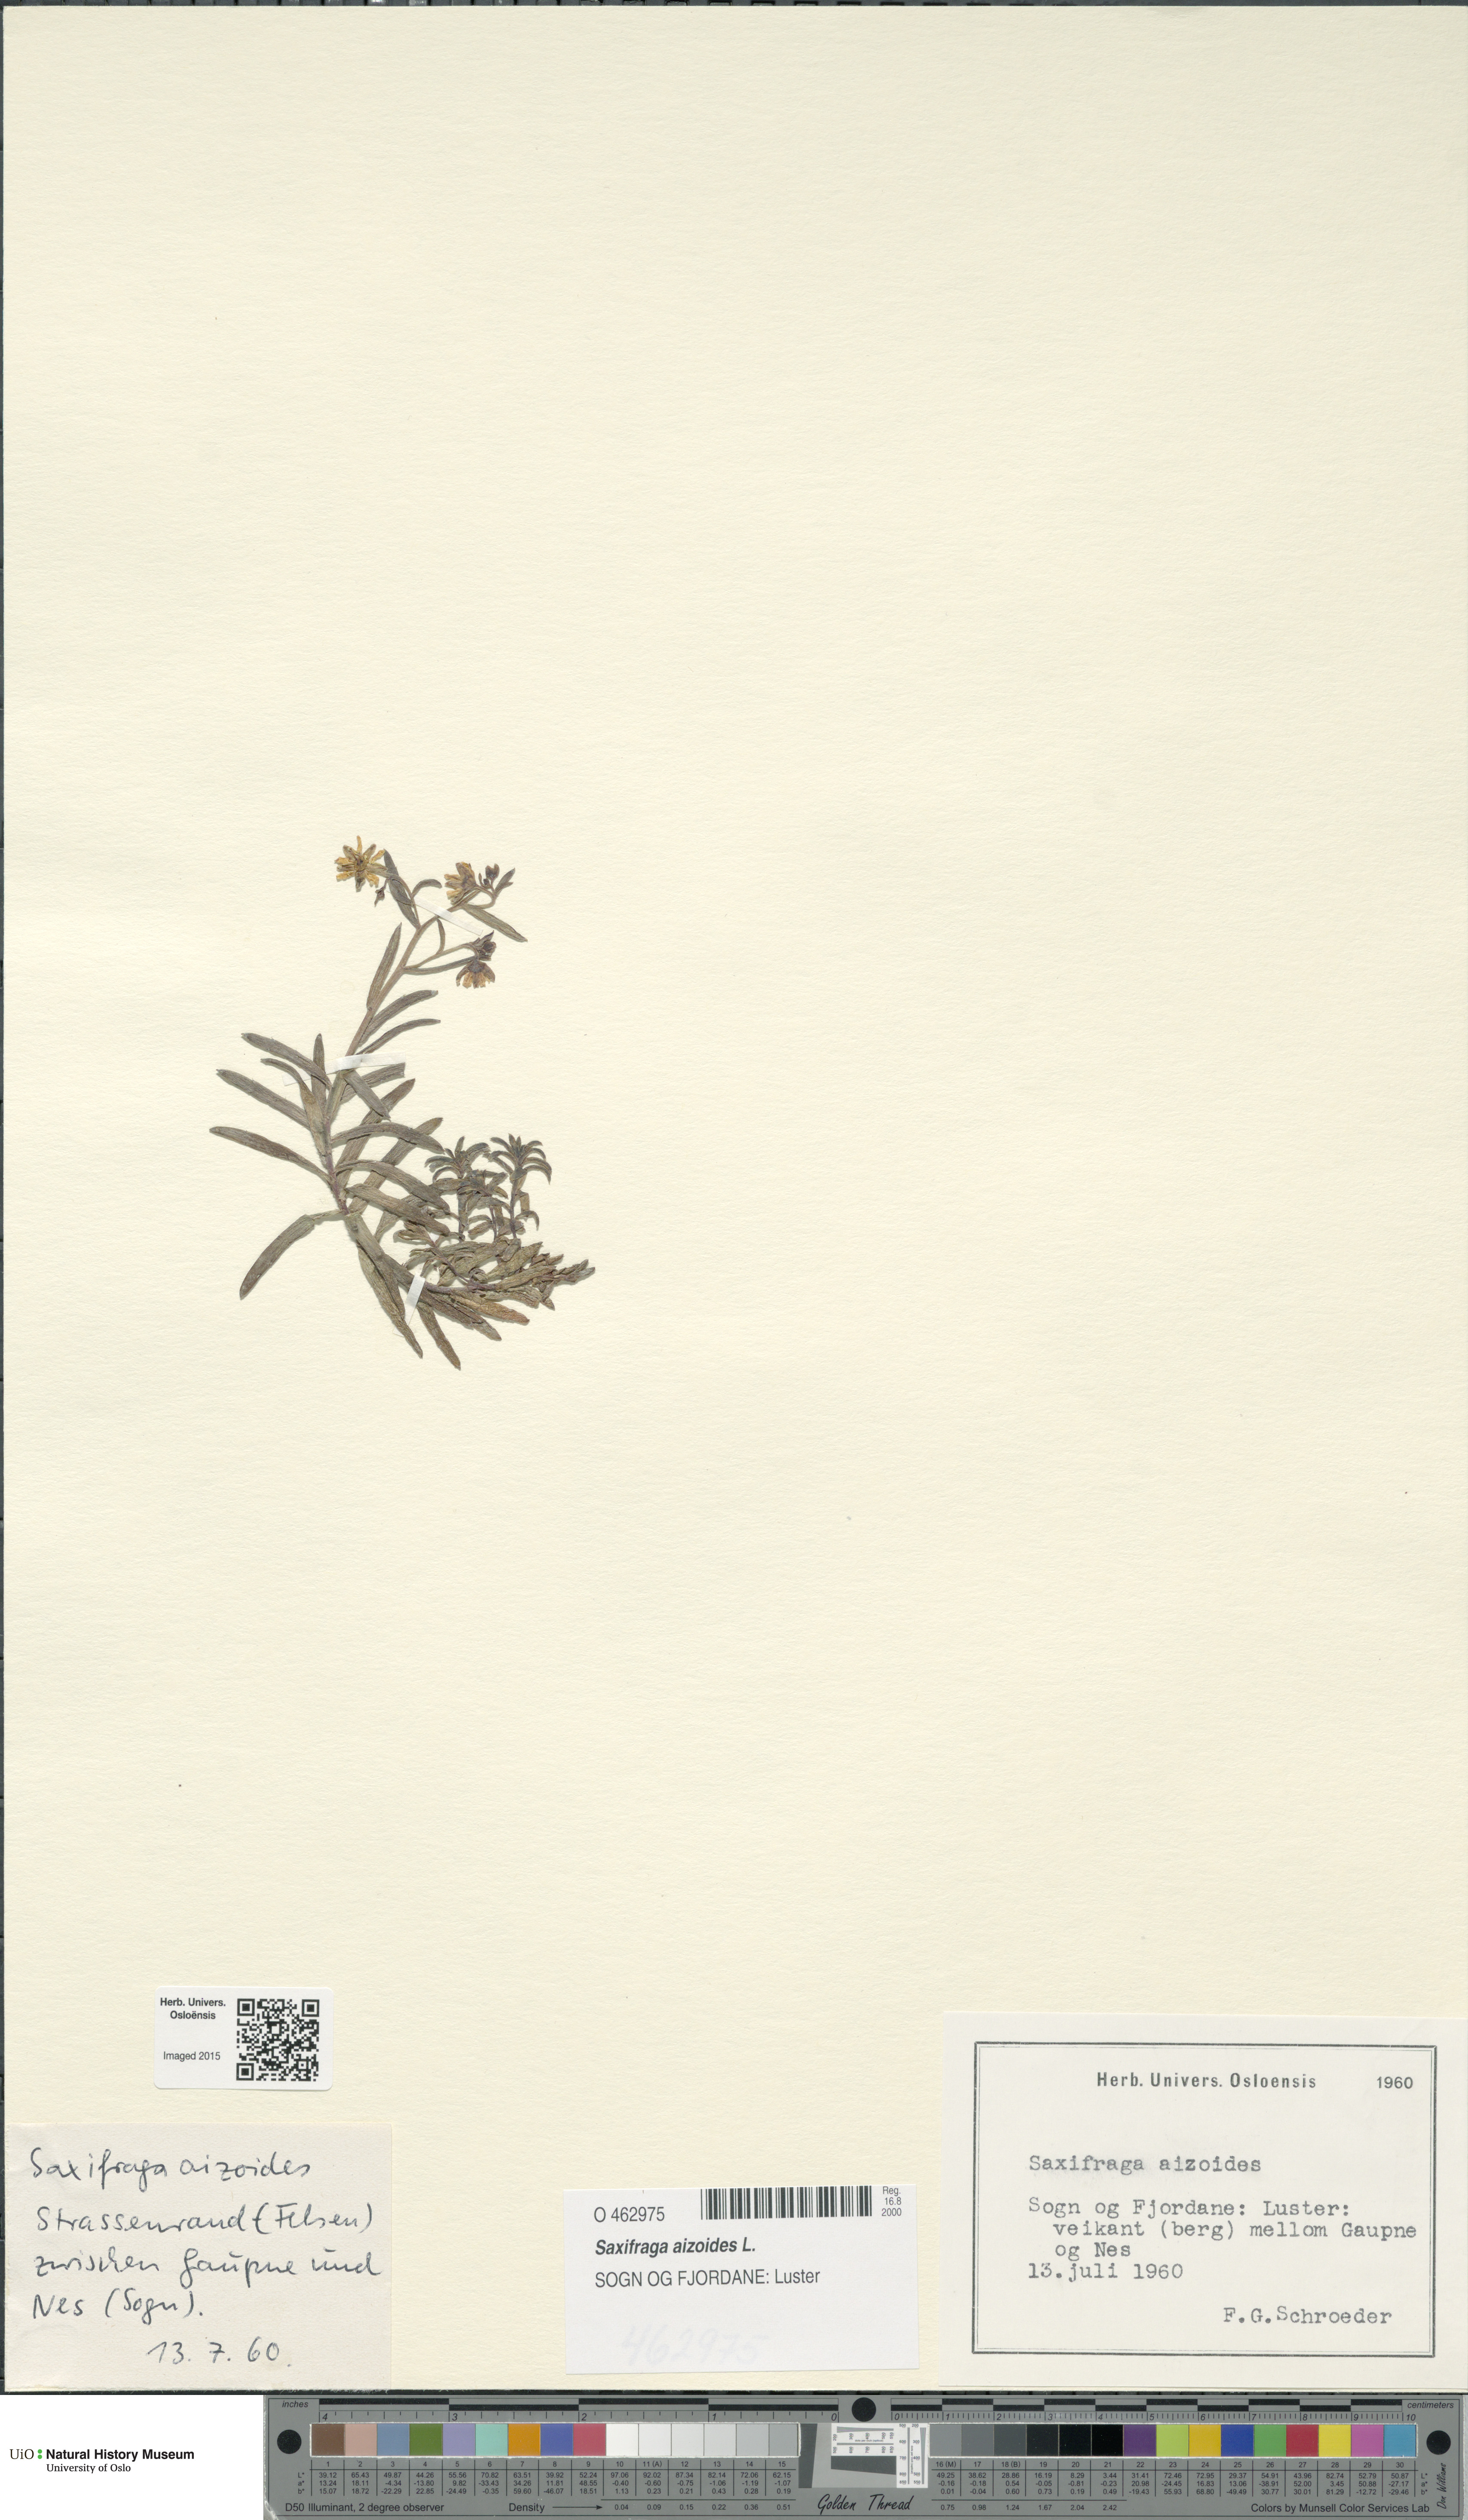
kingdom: Plantae
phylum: Tracheophyta
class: Magnoliopsida
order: Saxifragales
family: Saxifragaceae
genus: Saxifraga
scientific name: Saxifraga aizoides
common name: Yellow mountain saxifrage
